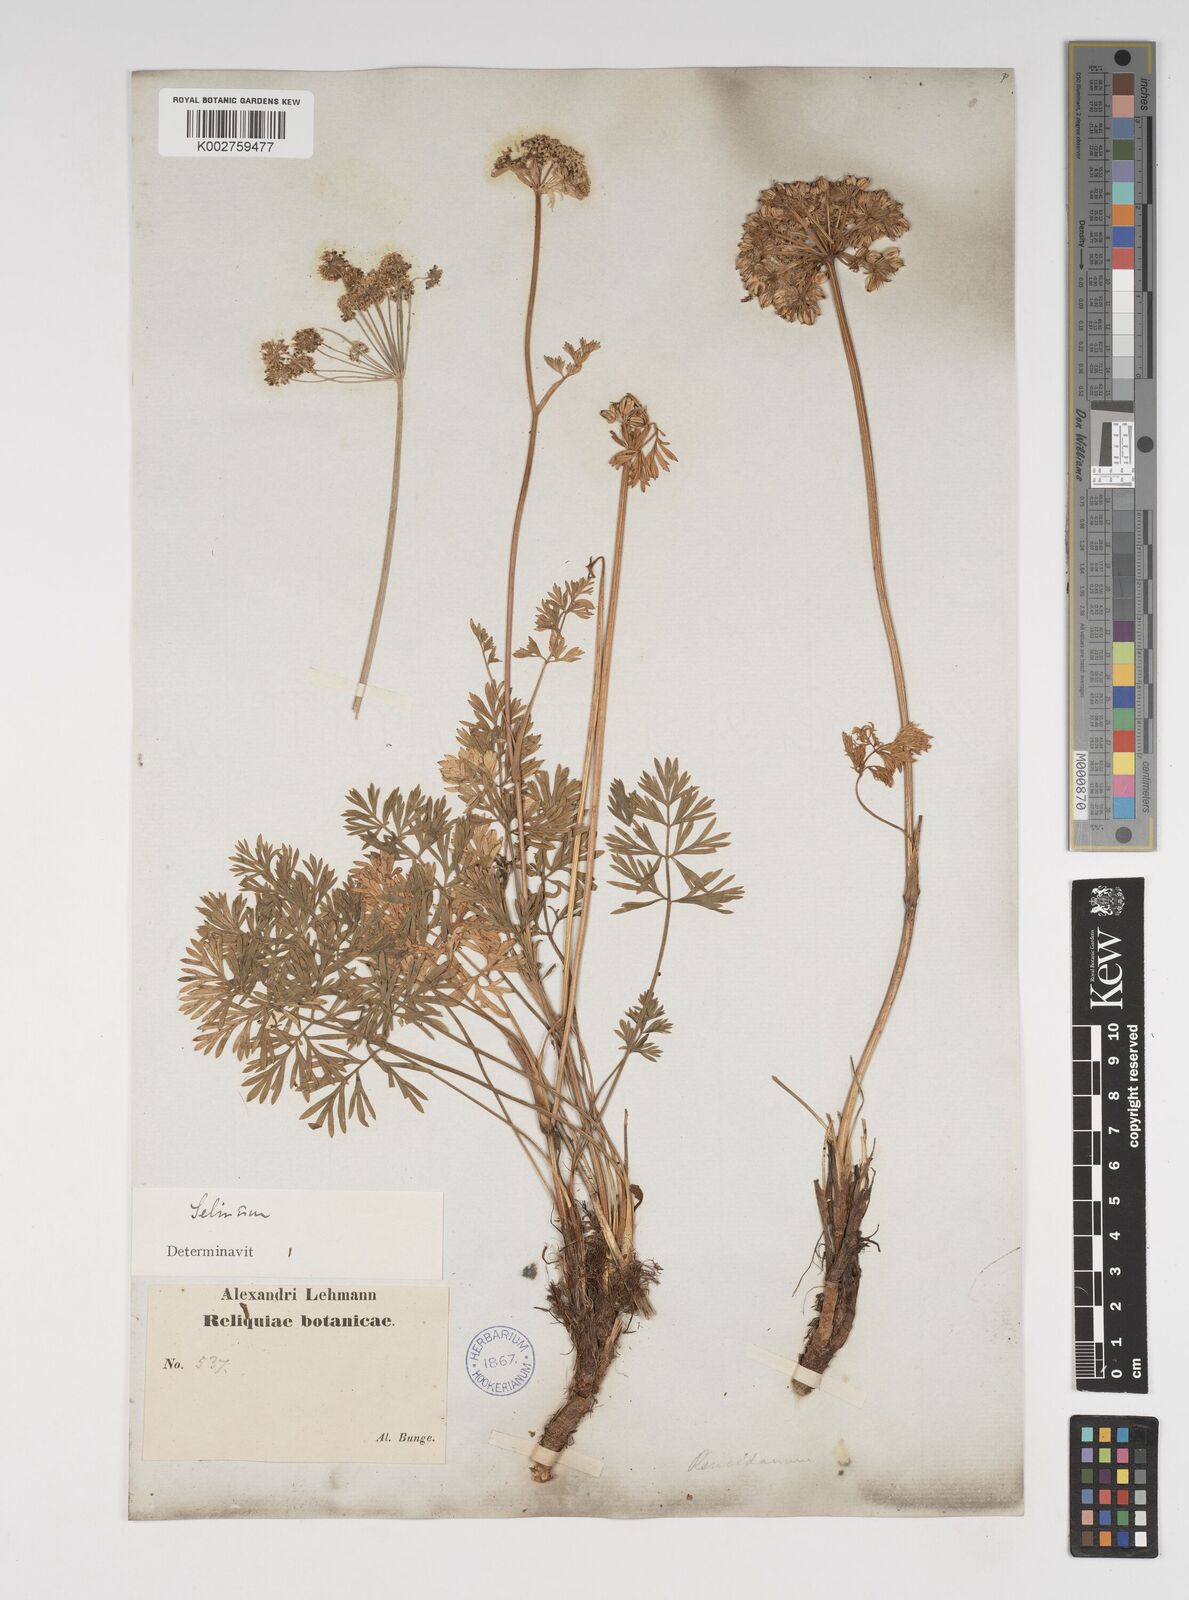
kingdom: Plantae
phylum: Tracheophyta
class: Magnoliopsida
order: Apiales
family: Apiaceae
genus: Kadenia
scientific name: Kadenia salina
